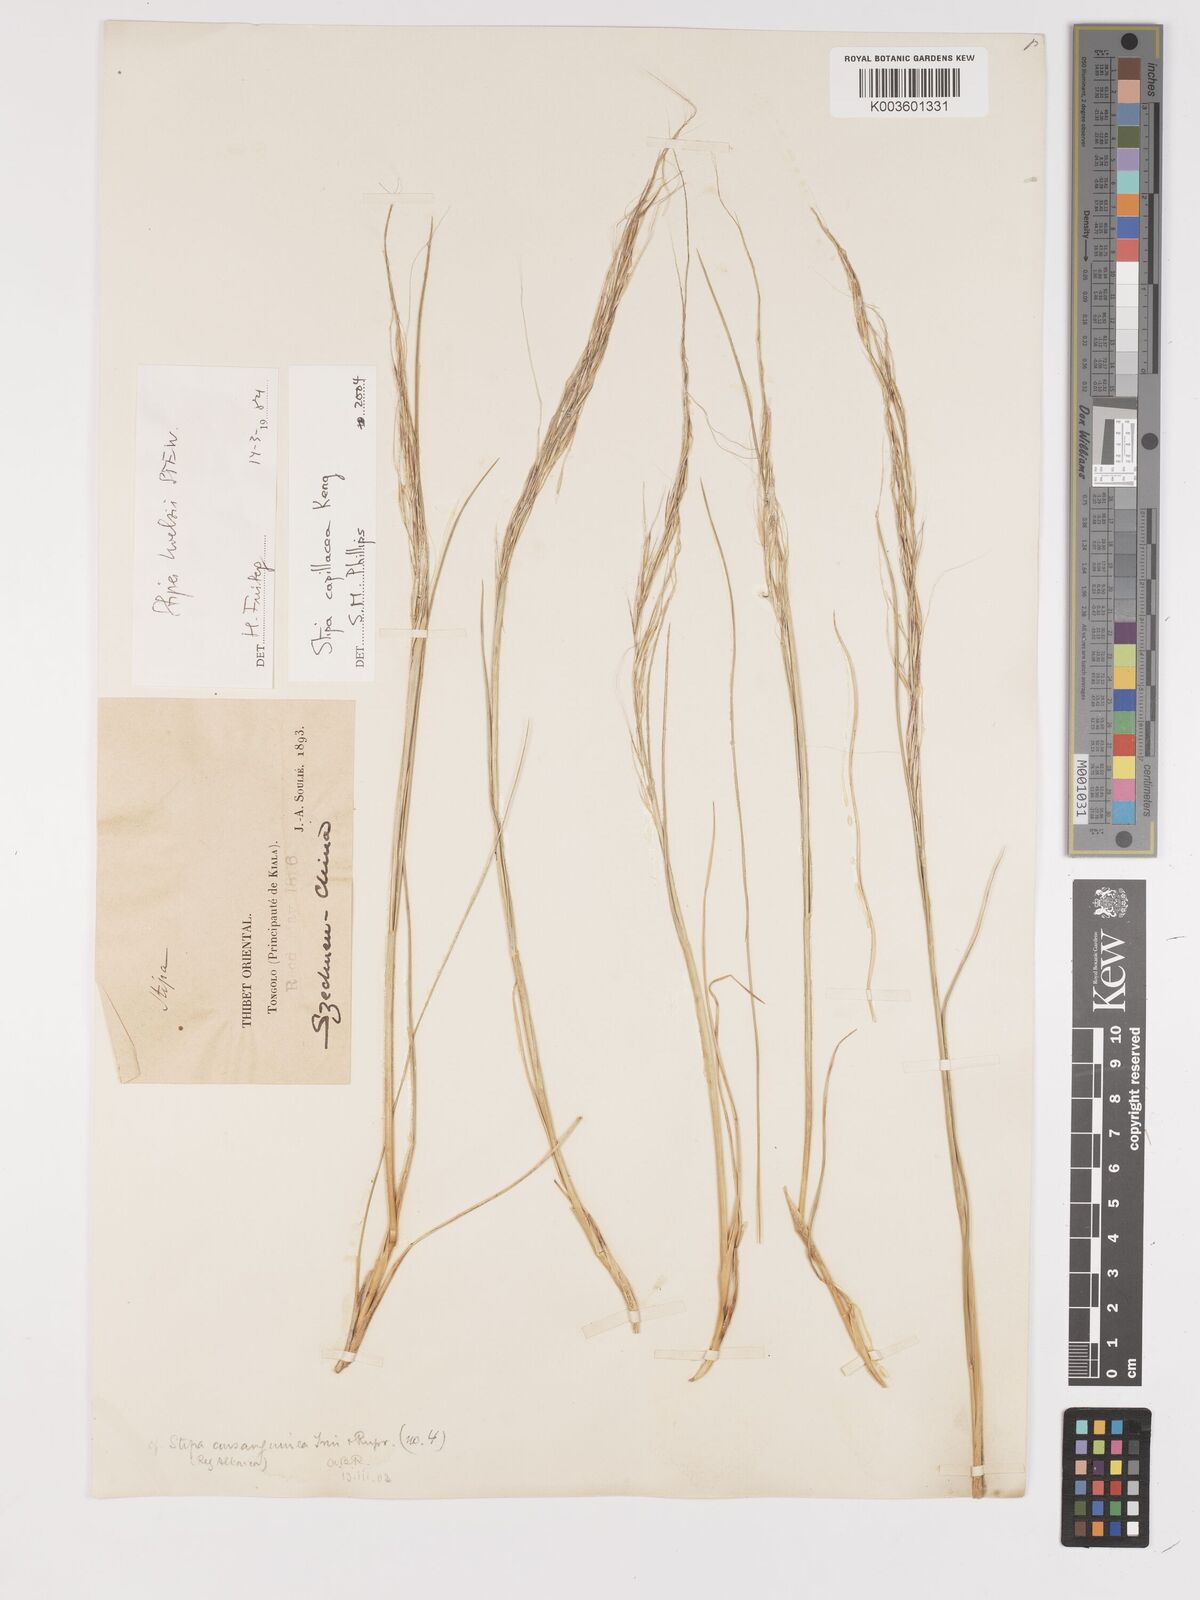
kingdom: Plantae
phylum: Tracheophyta
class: Liliopsida
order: Poales
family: Poaceae
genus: Stipa
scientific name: Stipa capillacea
